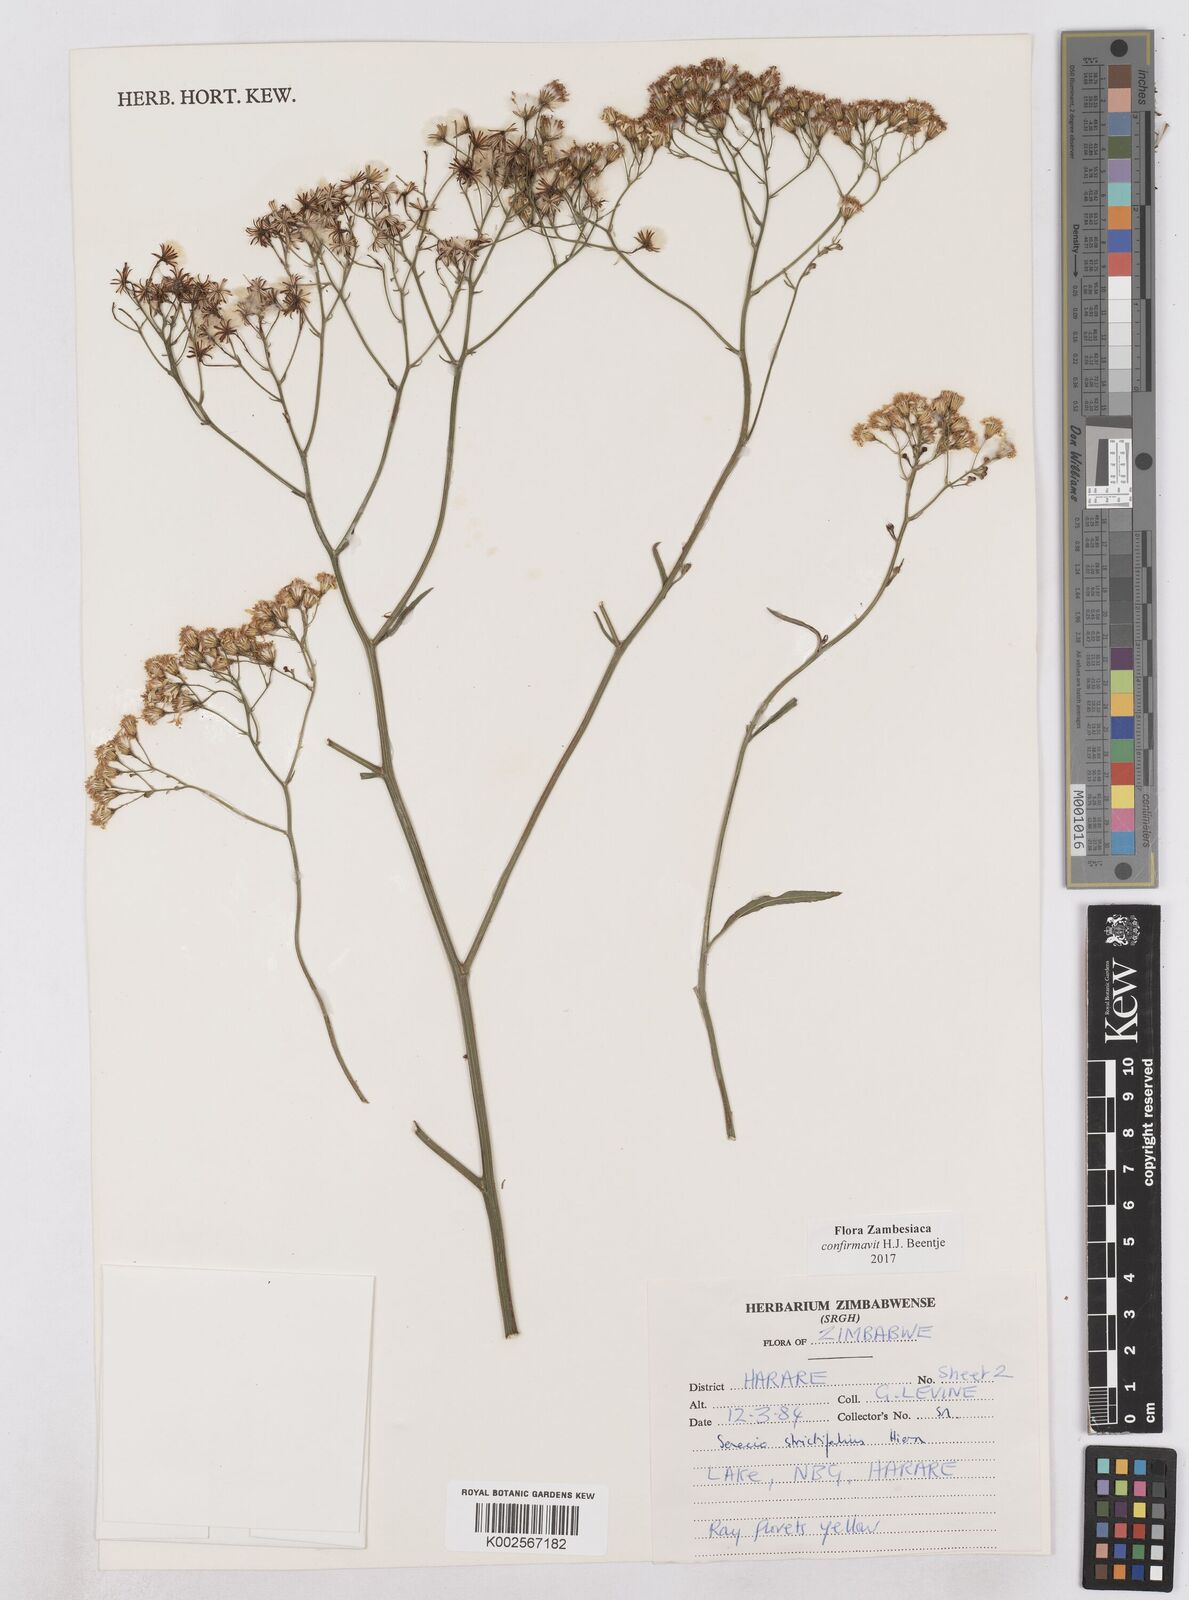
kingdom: Plantae
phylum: Tracheophyta
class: Magnoliopsida
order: Asterales
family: Asteraceae
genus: Senecio
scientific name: Senecio strictifolius
